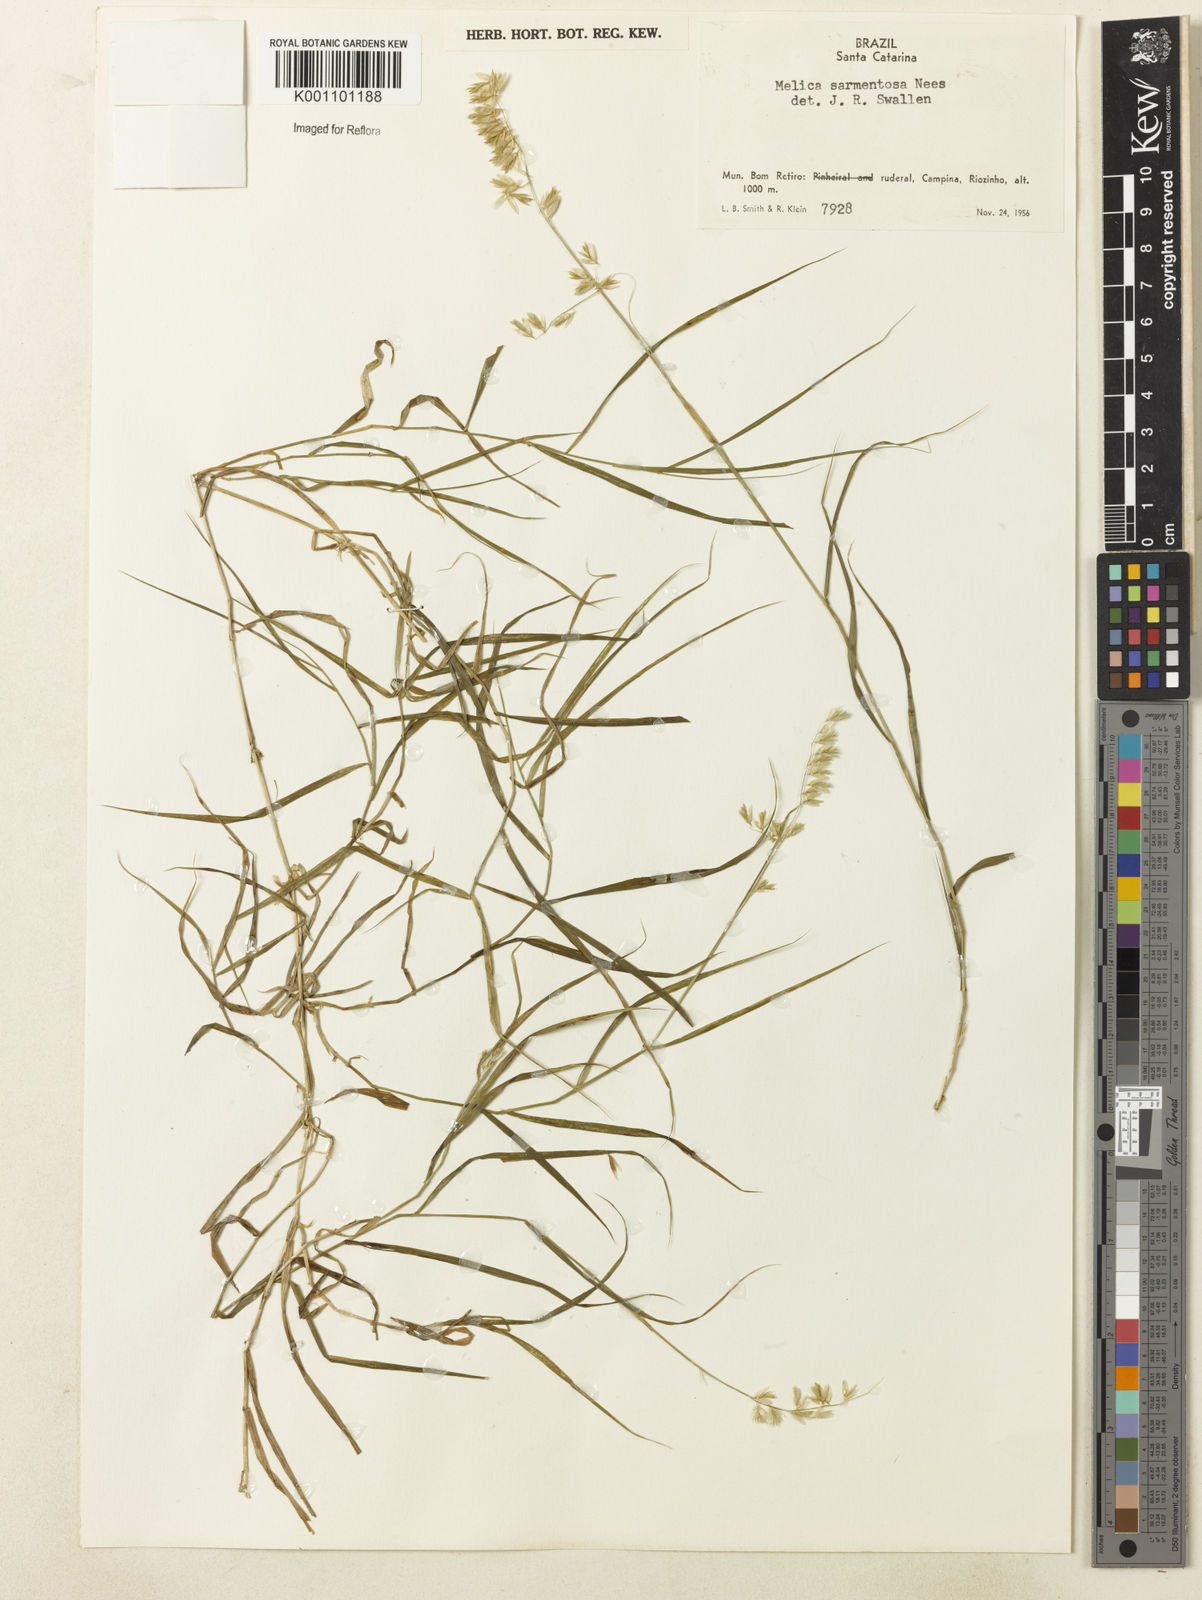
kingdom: Plantae
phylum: Tracheophyta
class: Liliopsida
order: Poales
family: Poaceae
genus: Melica
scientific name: Melica sarmentosa
